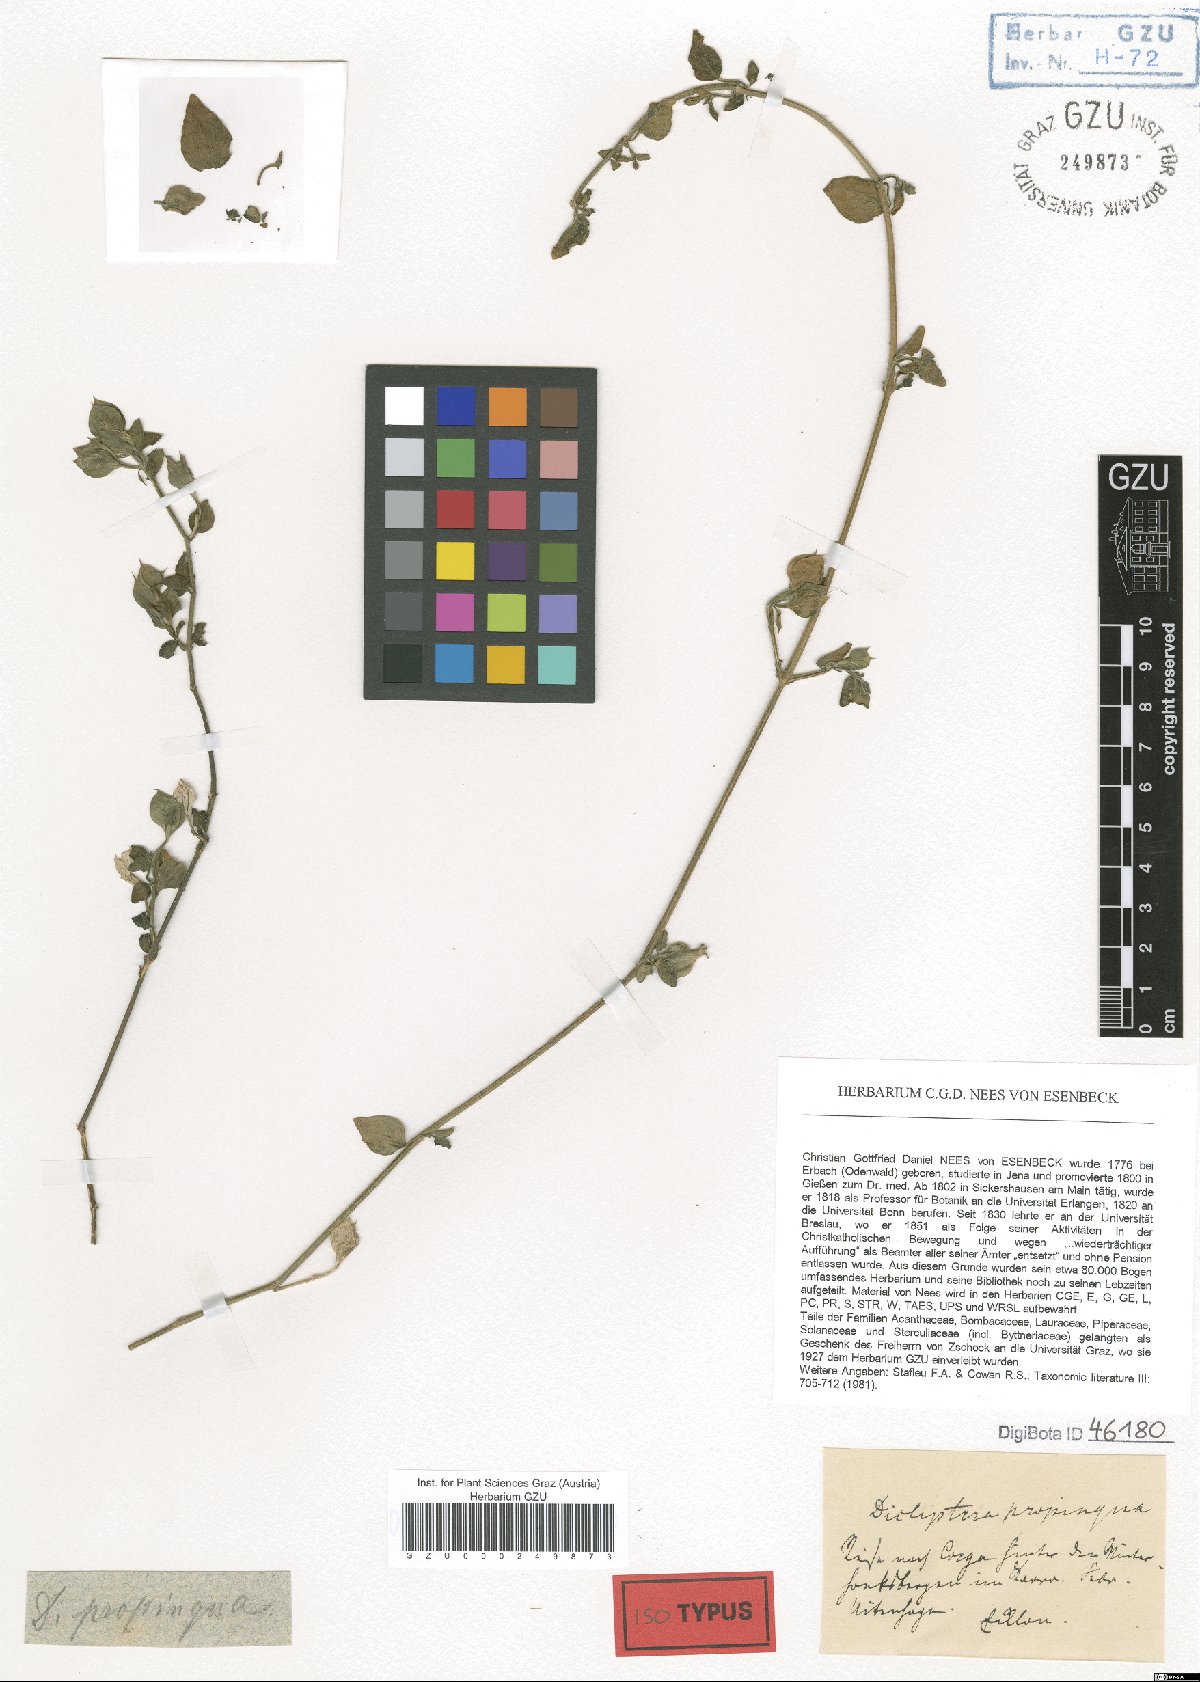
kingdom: Plantae
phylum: Tracheophyta
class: Magnoliopsida
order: Lamiales
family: Acanthaceae
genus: Dicliptera
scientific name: Dicliptera capensis
